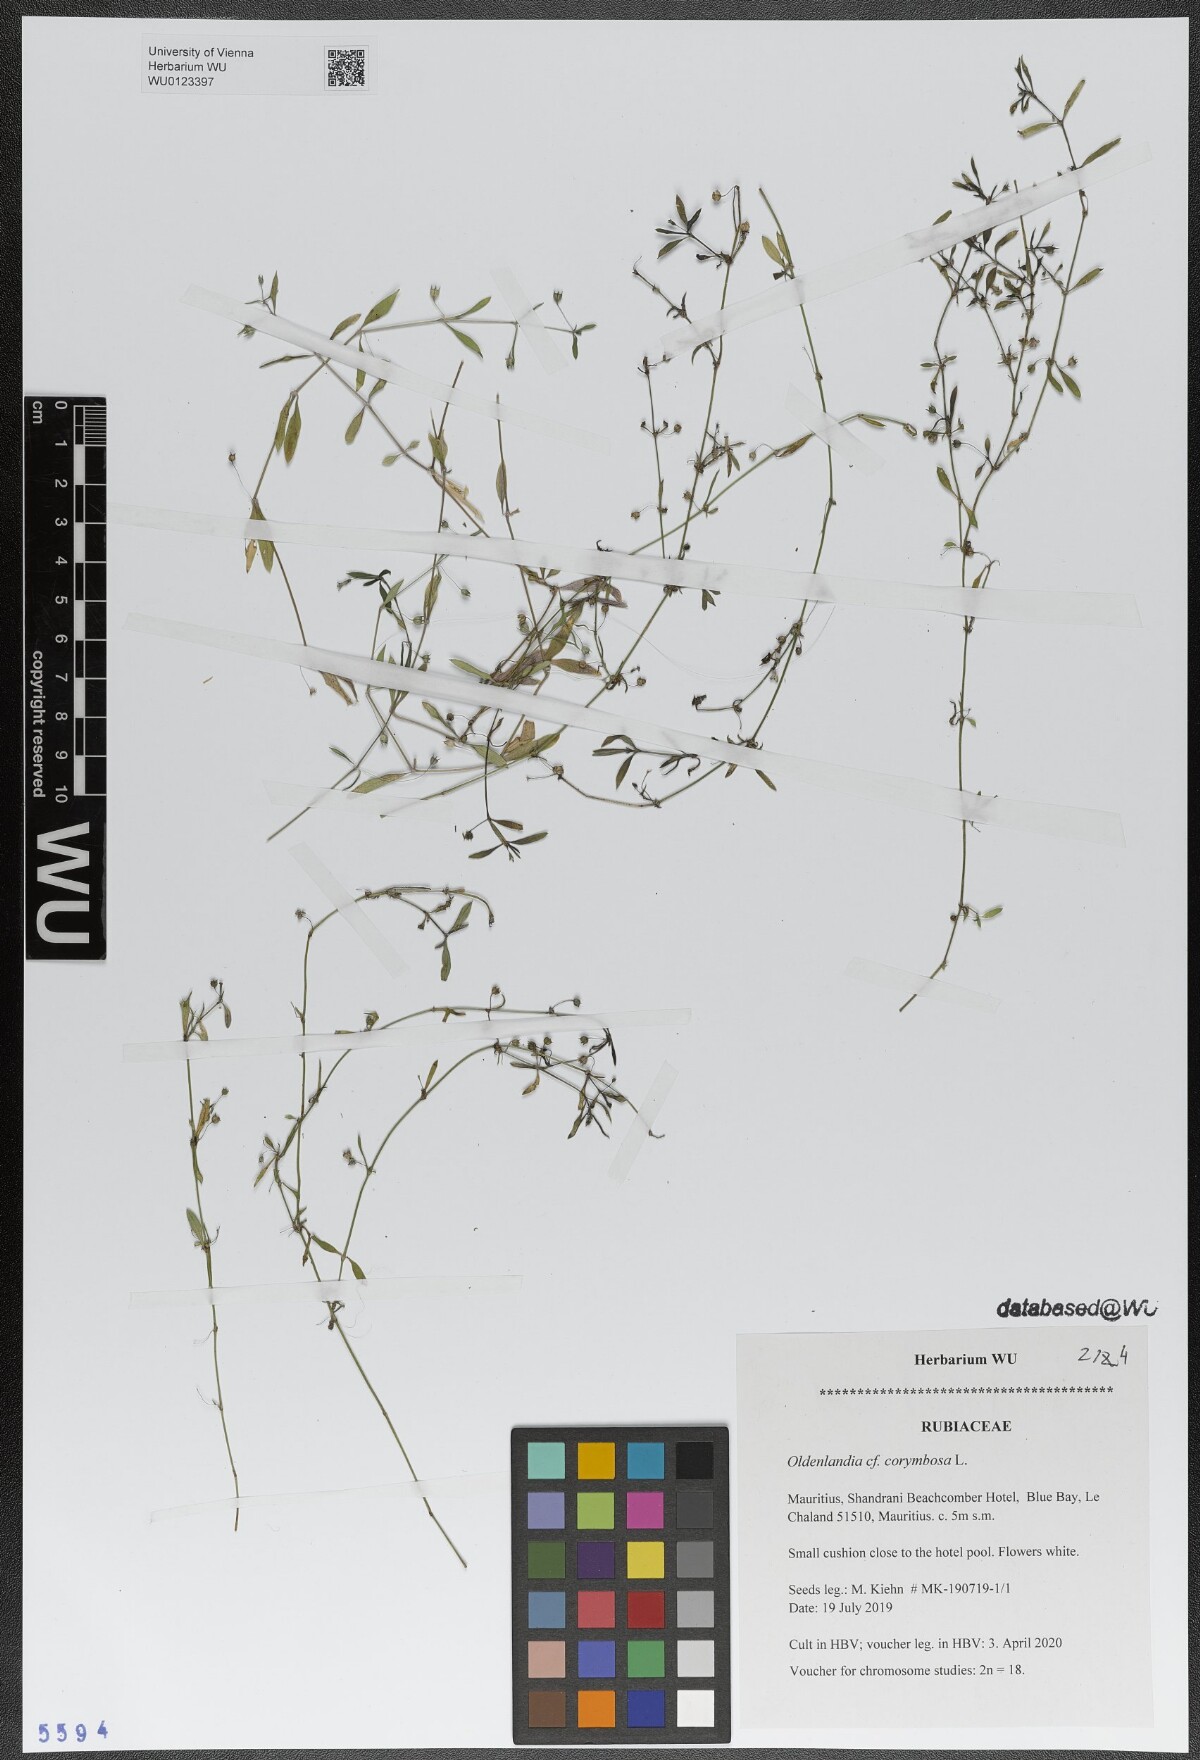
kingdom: Plantae
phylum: Tracheophyta
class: Magnoliopsida
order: Gentianales
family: Rubiaceae
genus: Oldenlandia
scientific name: Oldenlandia corymbosa
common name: Flat-top mille graines
